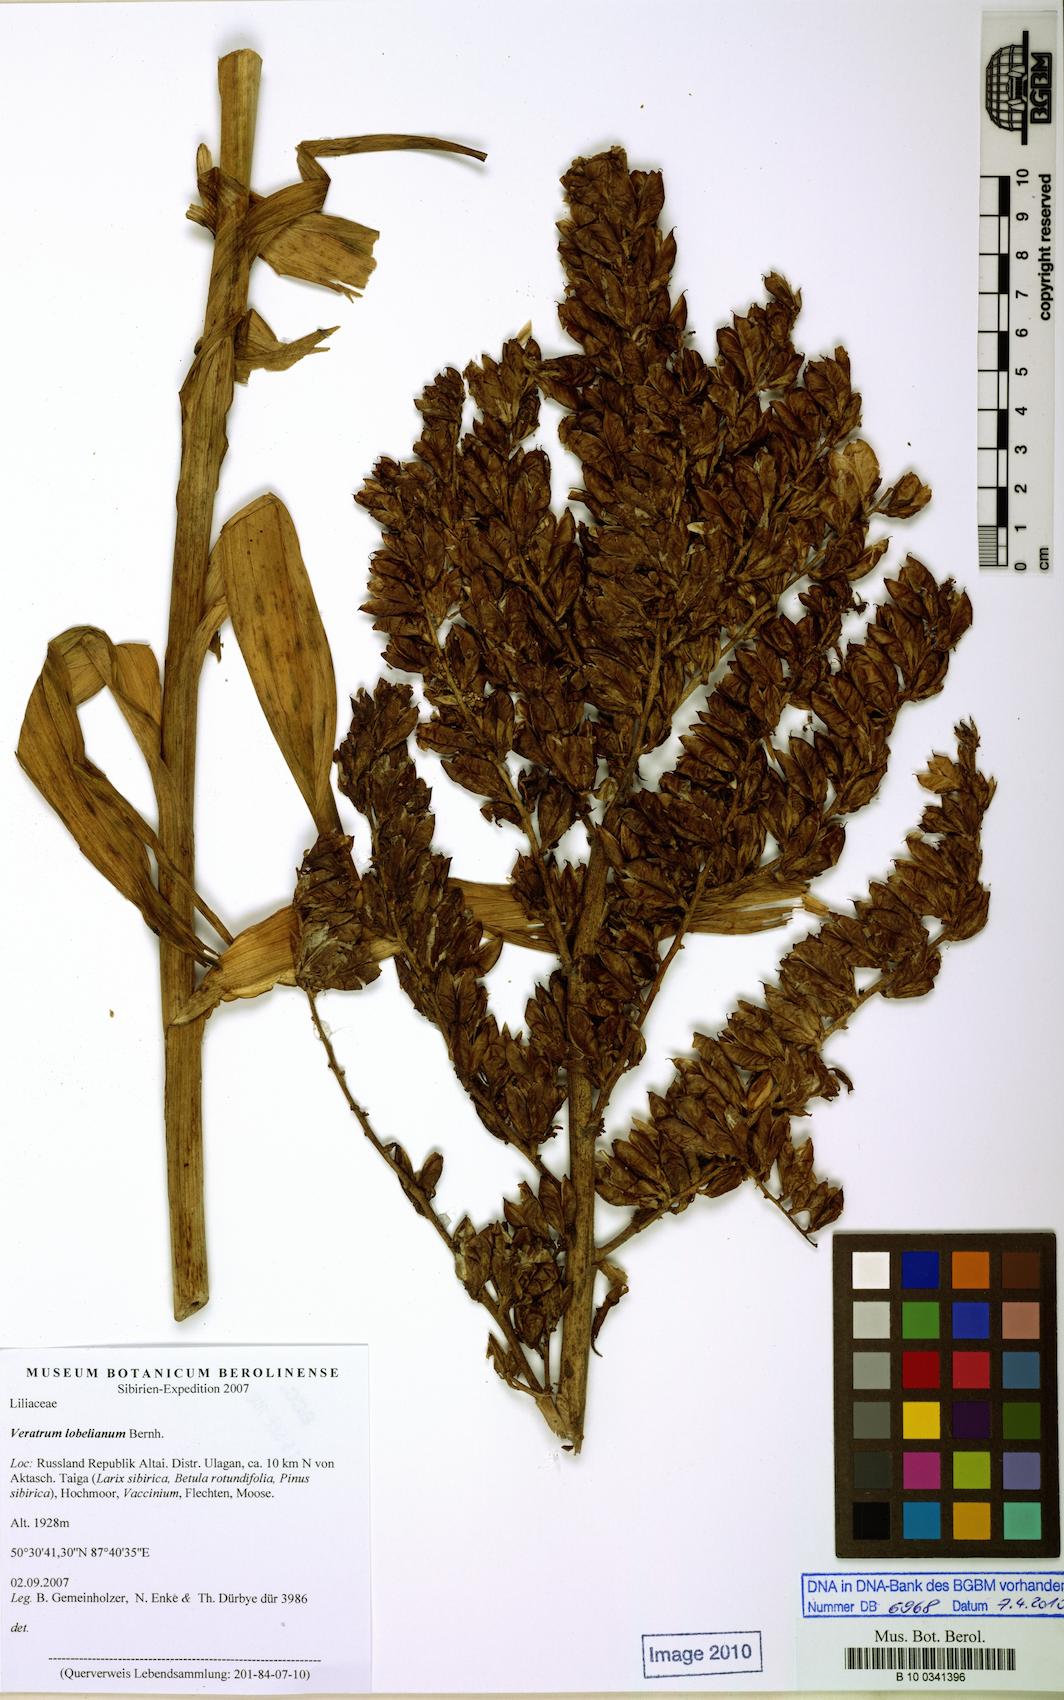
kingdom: Plantae
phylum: Tracheophyta
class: Liliopsida
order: Liliales
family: Melanthiaceae
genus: Veratrum
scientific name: Veratrum lobelianum
